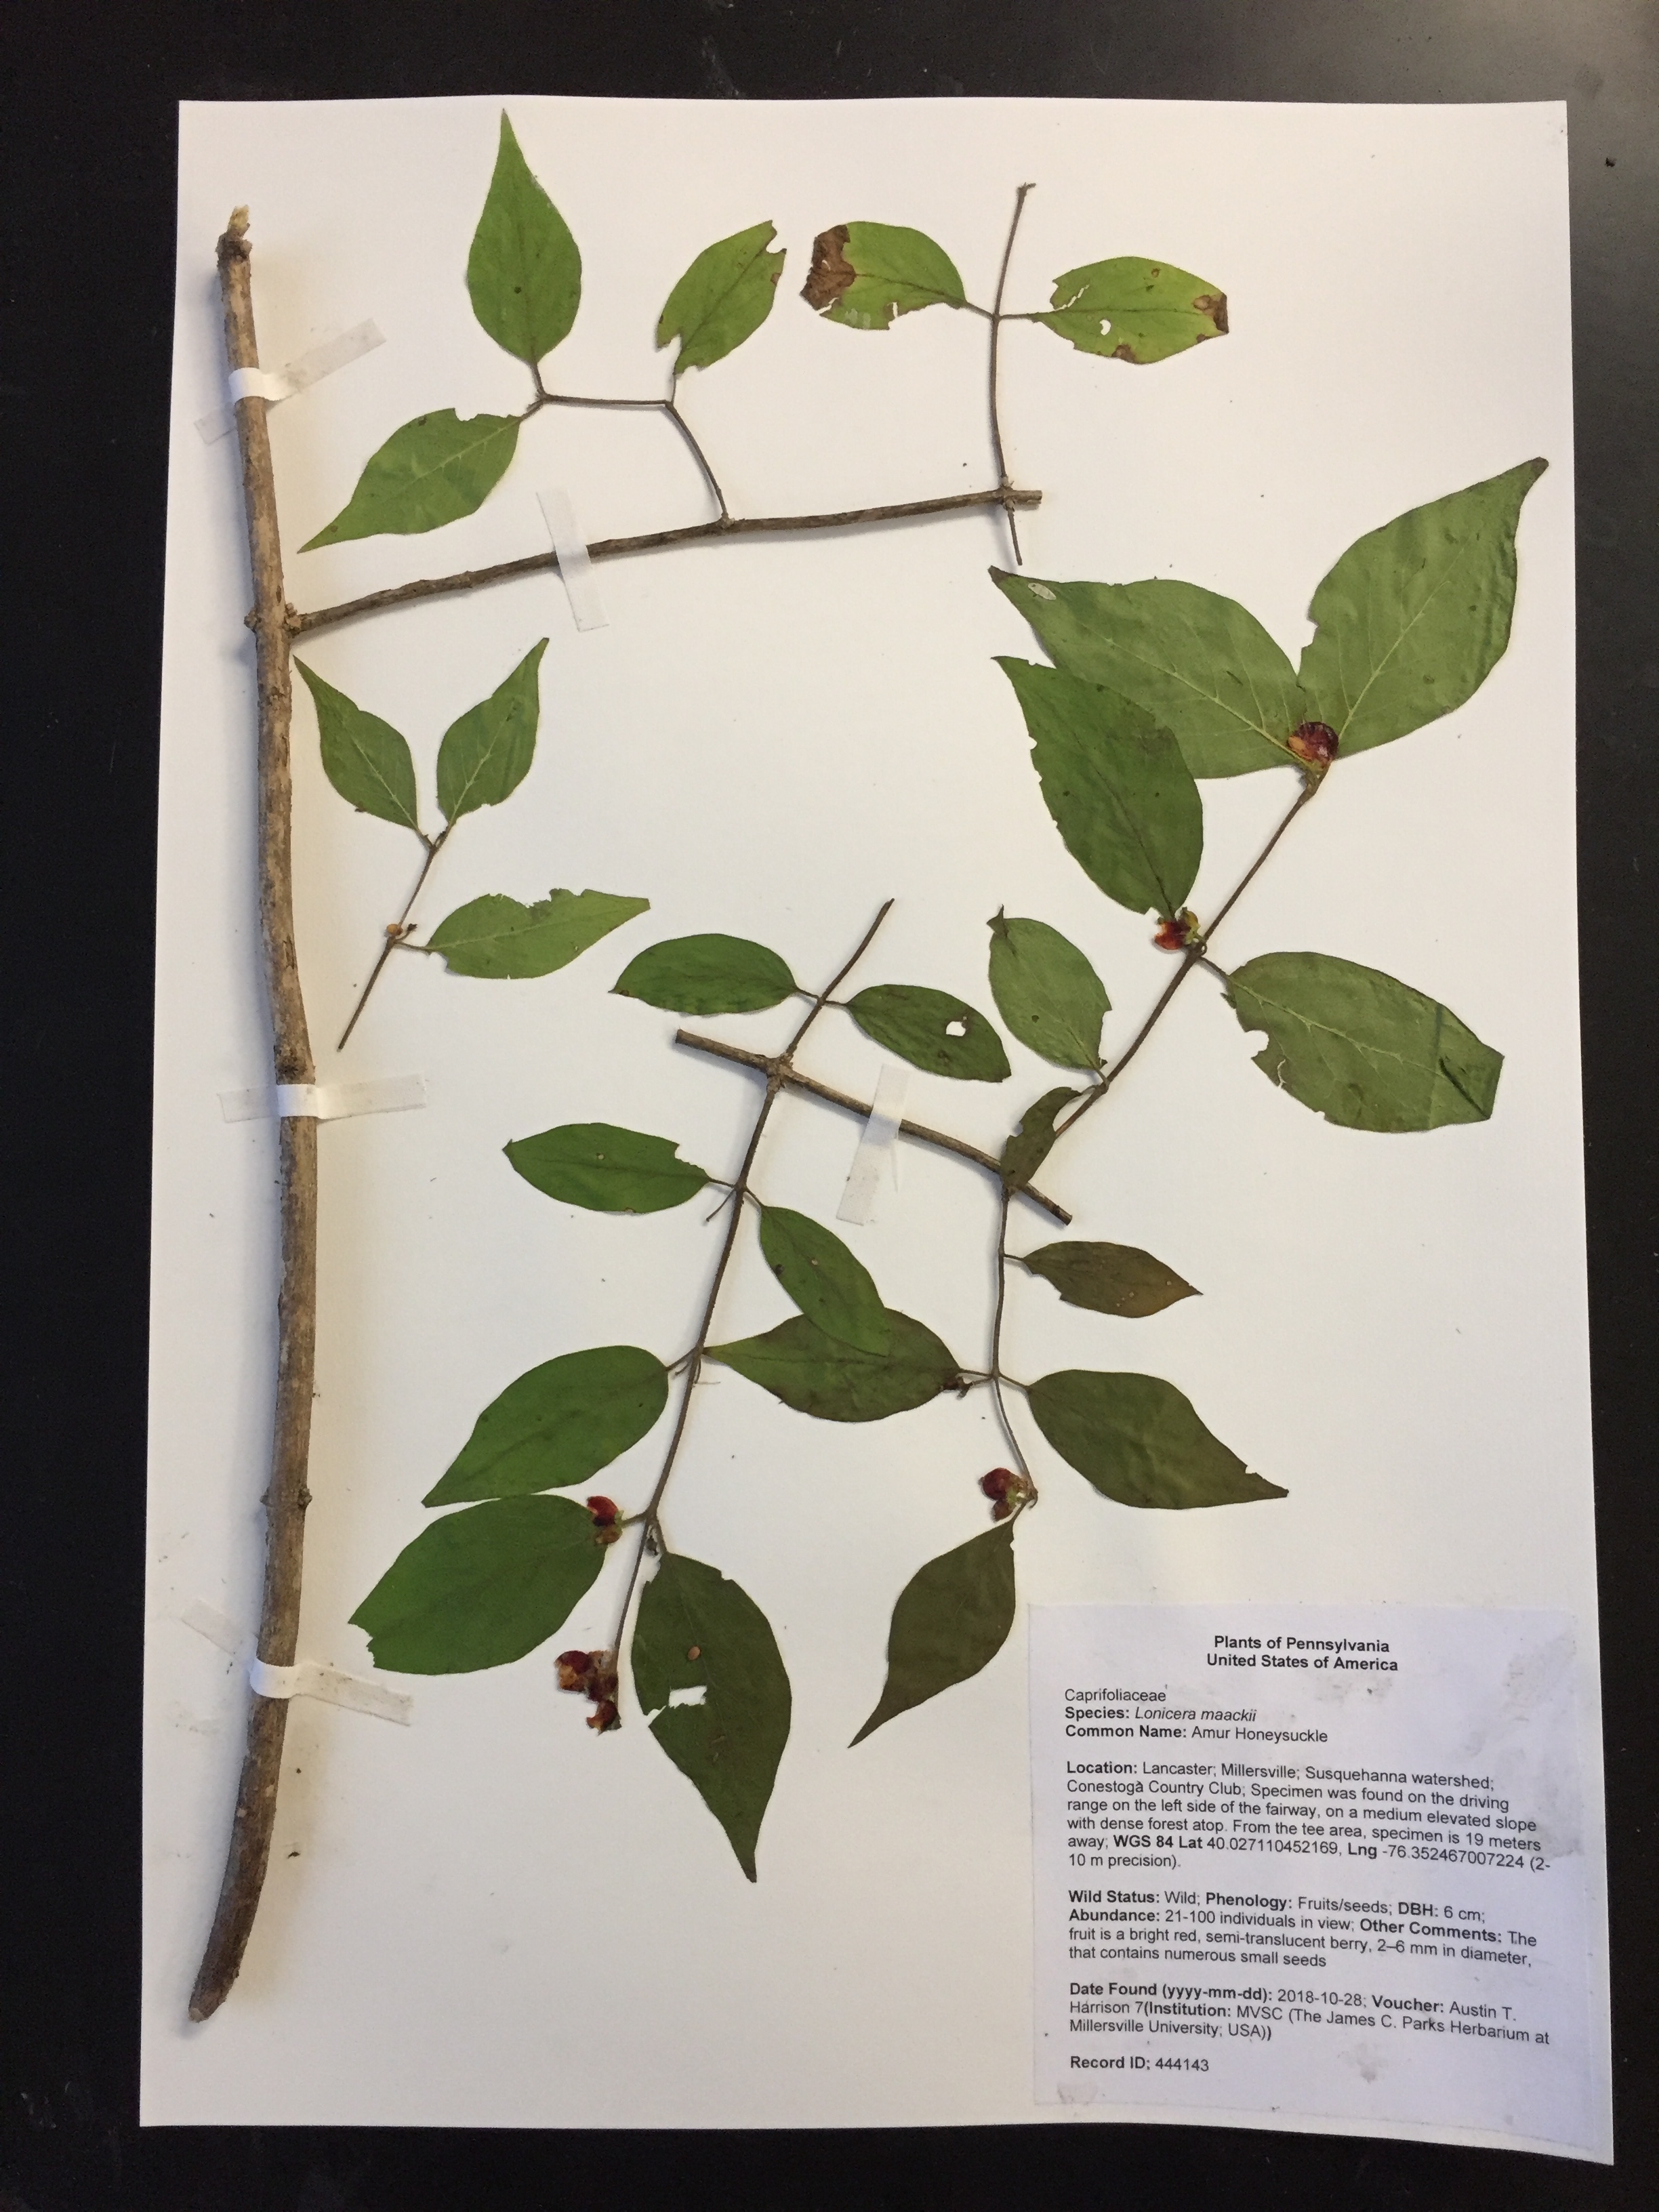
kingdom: Plantae
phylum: Tracheophyta
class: Magnoliopsida
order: Dipsacales
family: Caprifoliaceae
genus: Lonicera
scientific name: Lonicera maackii
